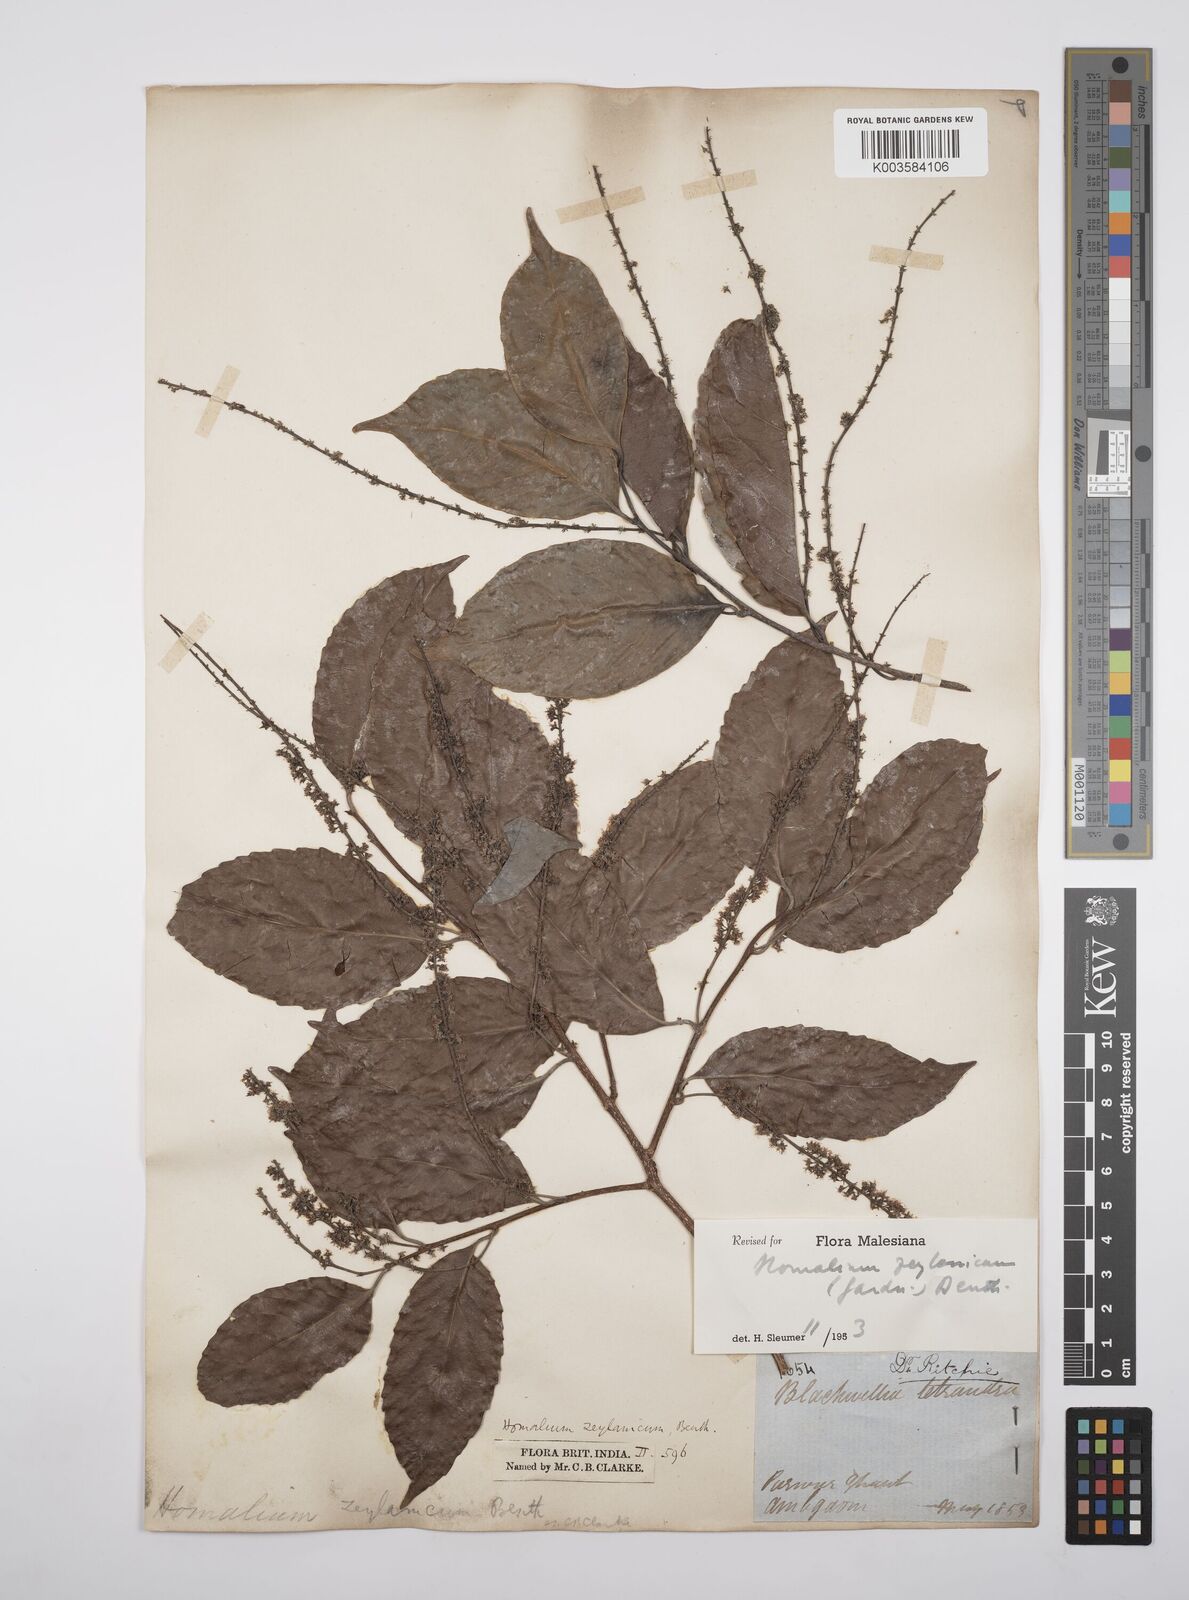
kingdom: Plantae
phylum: Tracheophyta
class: Magnoliopsida
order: Malpighiales
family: Salicaceae
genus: Homalium
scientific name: Homalium ceylanicum
